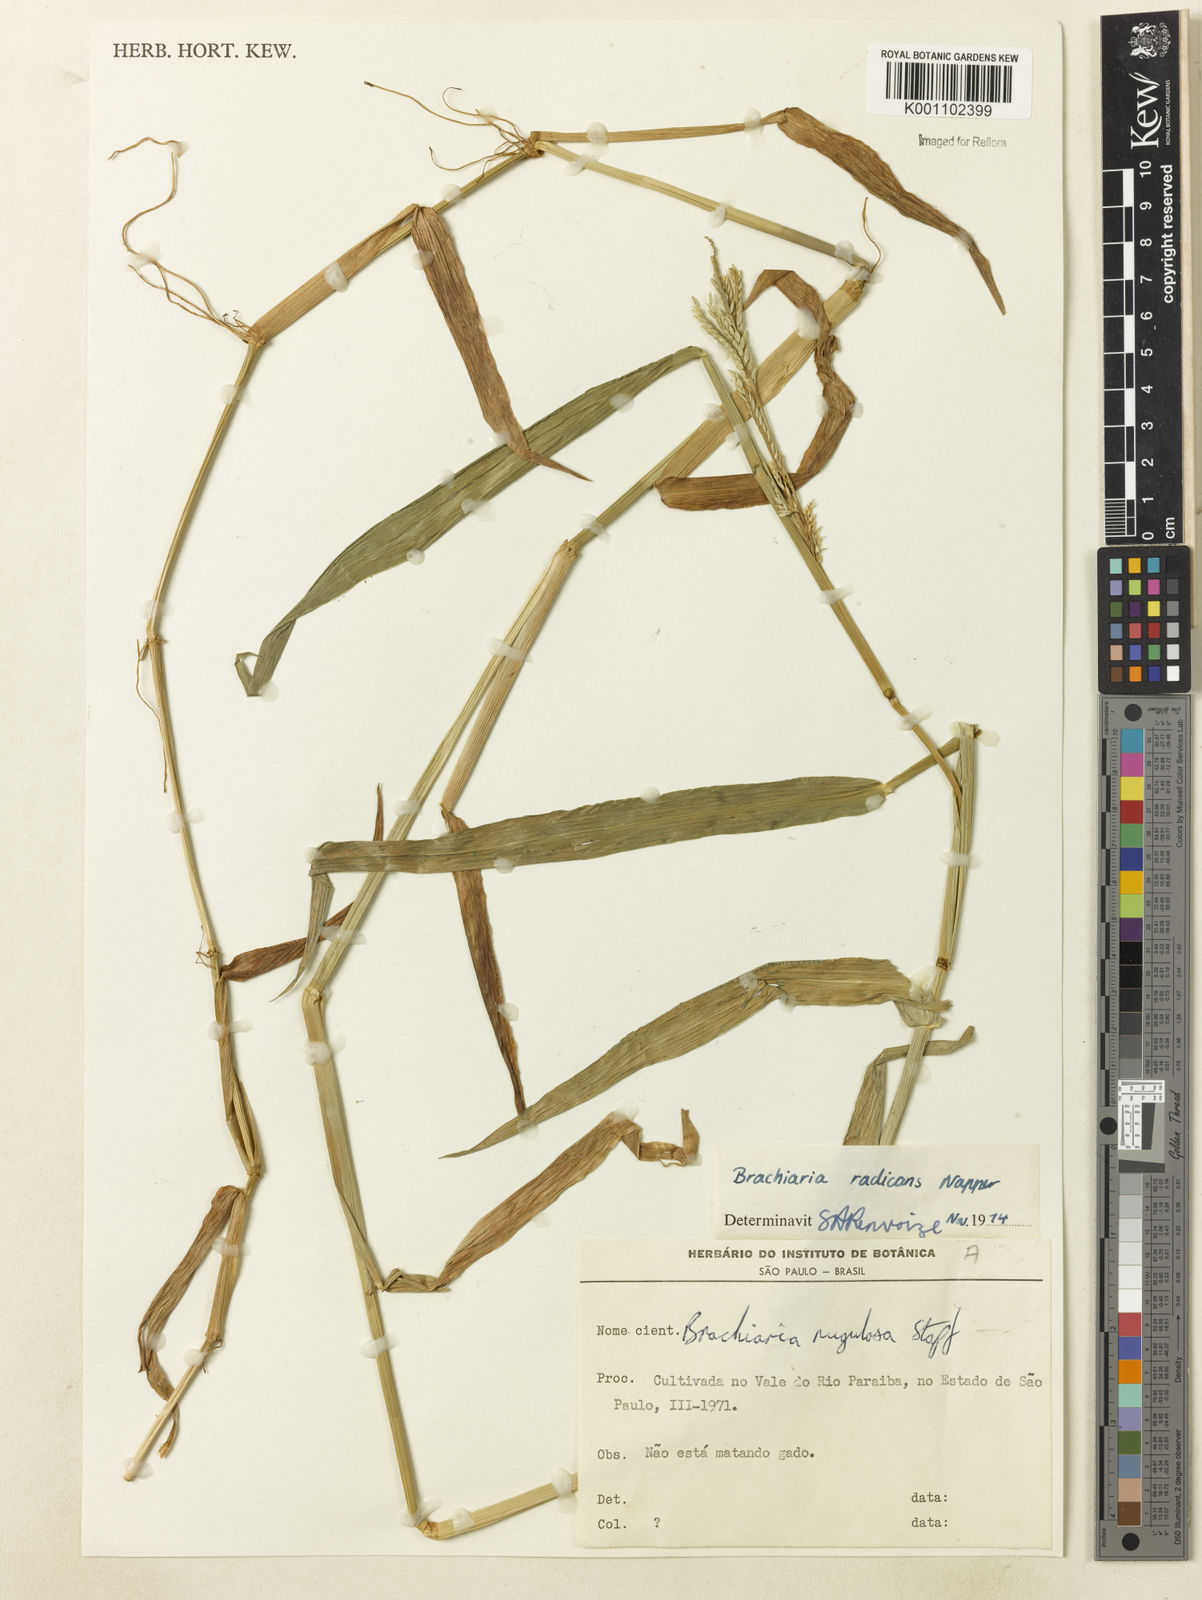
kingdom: Plantae
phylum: Tracheophyta
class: Liliopsida
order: Poales
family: Poaceae
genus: Urochloa
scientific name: Urochloa arrecta
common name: African signalgrass
